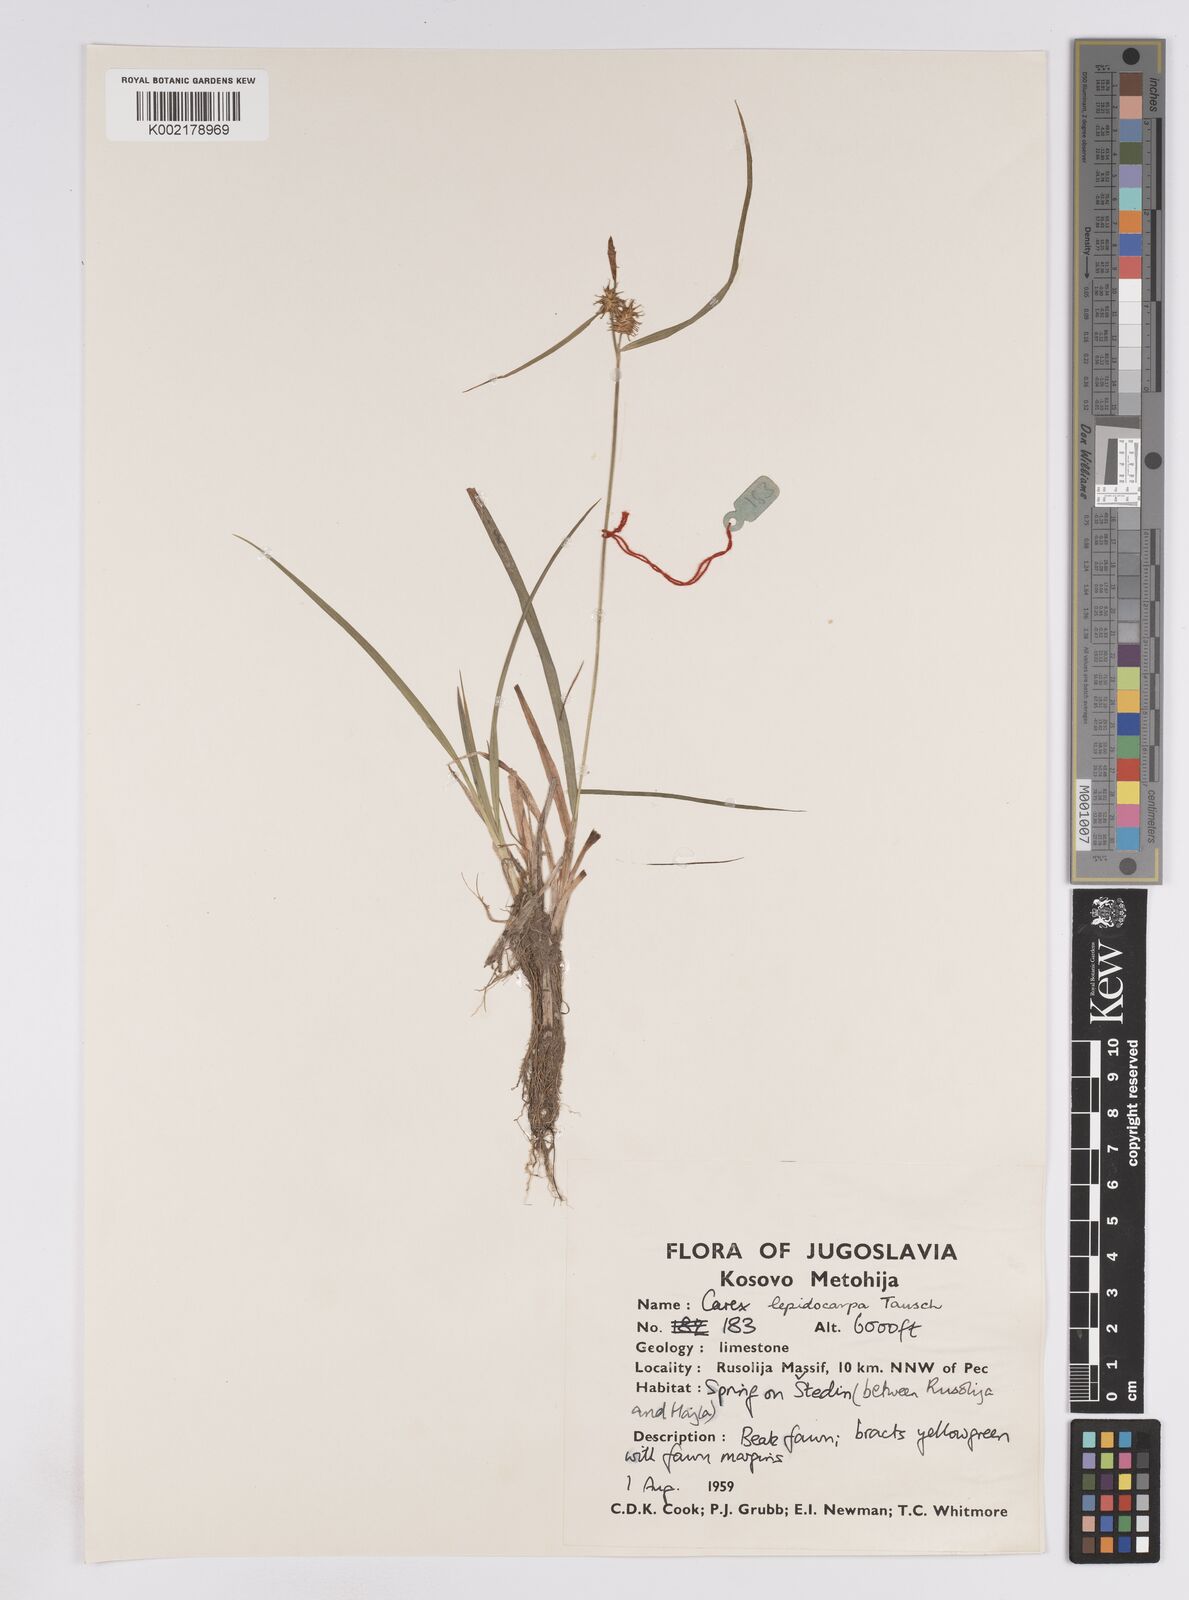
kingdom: Plantae
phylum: Tracheophyta
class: Liliopsida
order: Poales
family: Cyperaceae
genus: Carex
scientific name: Carex lepidocarpa
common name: Long-stalked yellow-sedge
